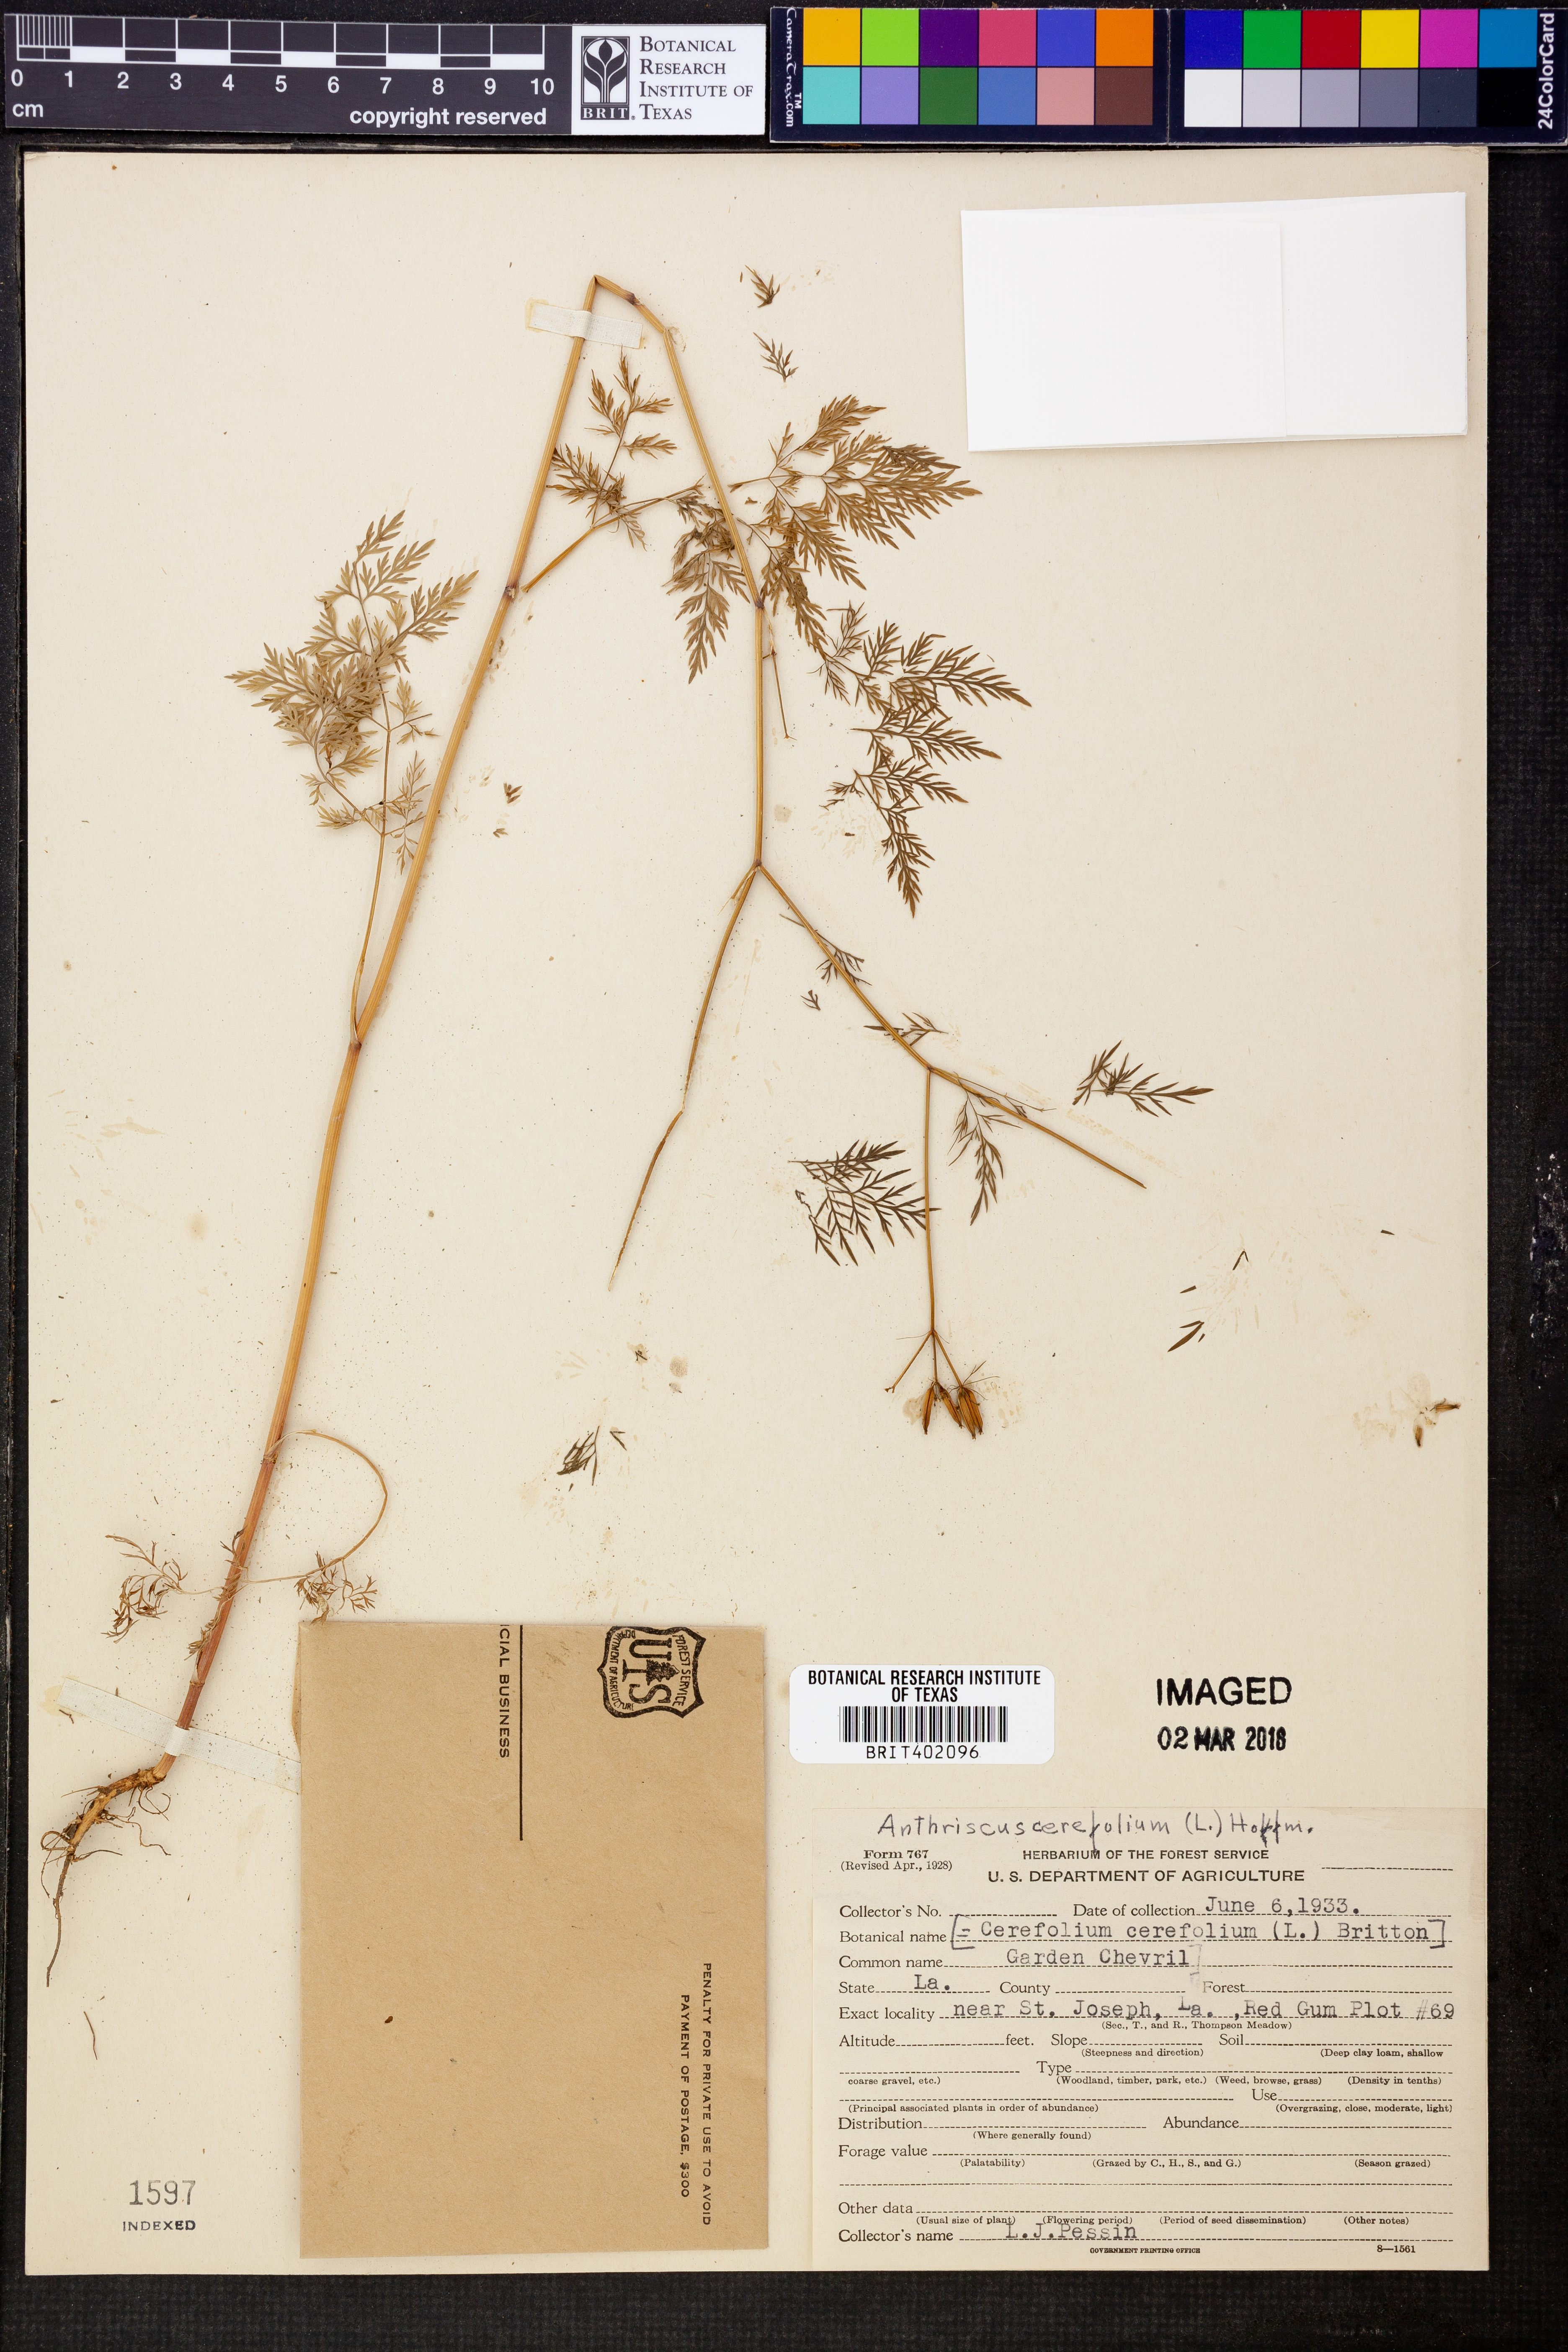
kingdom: Plantae
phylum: Tracheophyta
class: Magnoliopsida
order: Apiales
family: Apiaceae
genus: Anthriscus
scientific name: Anthriscus cerefolium
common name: Garden chervil
